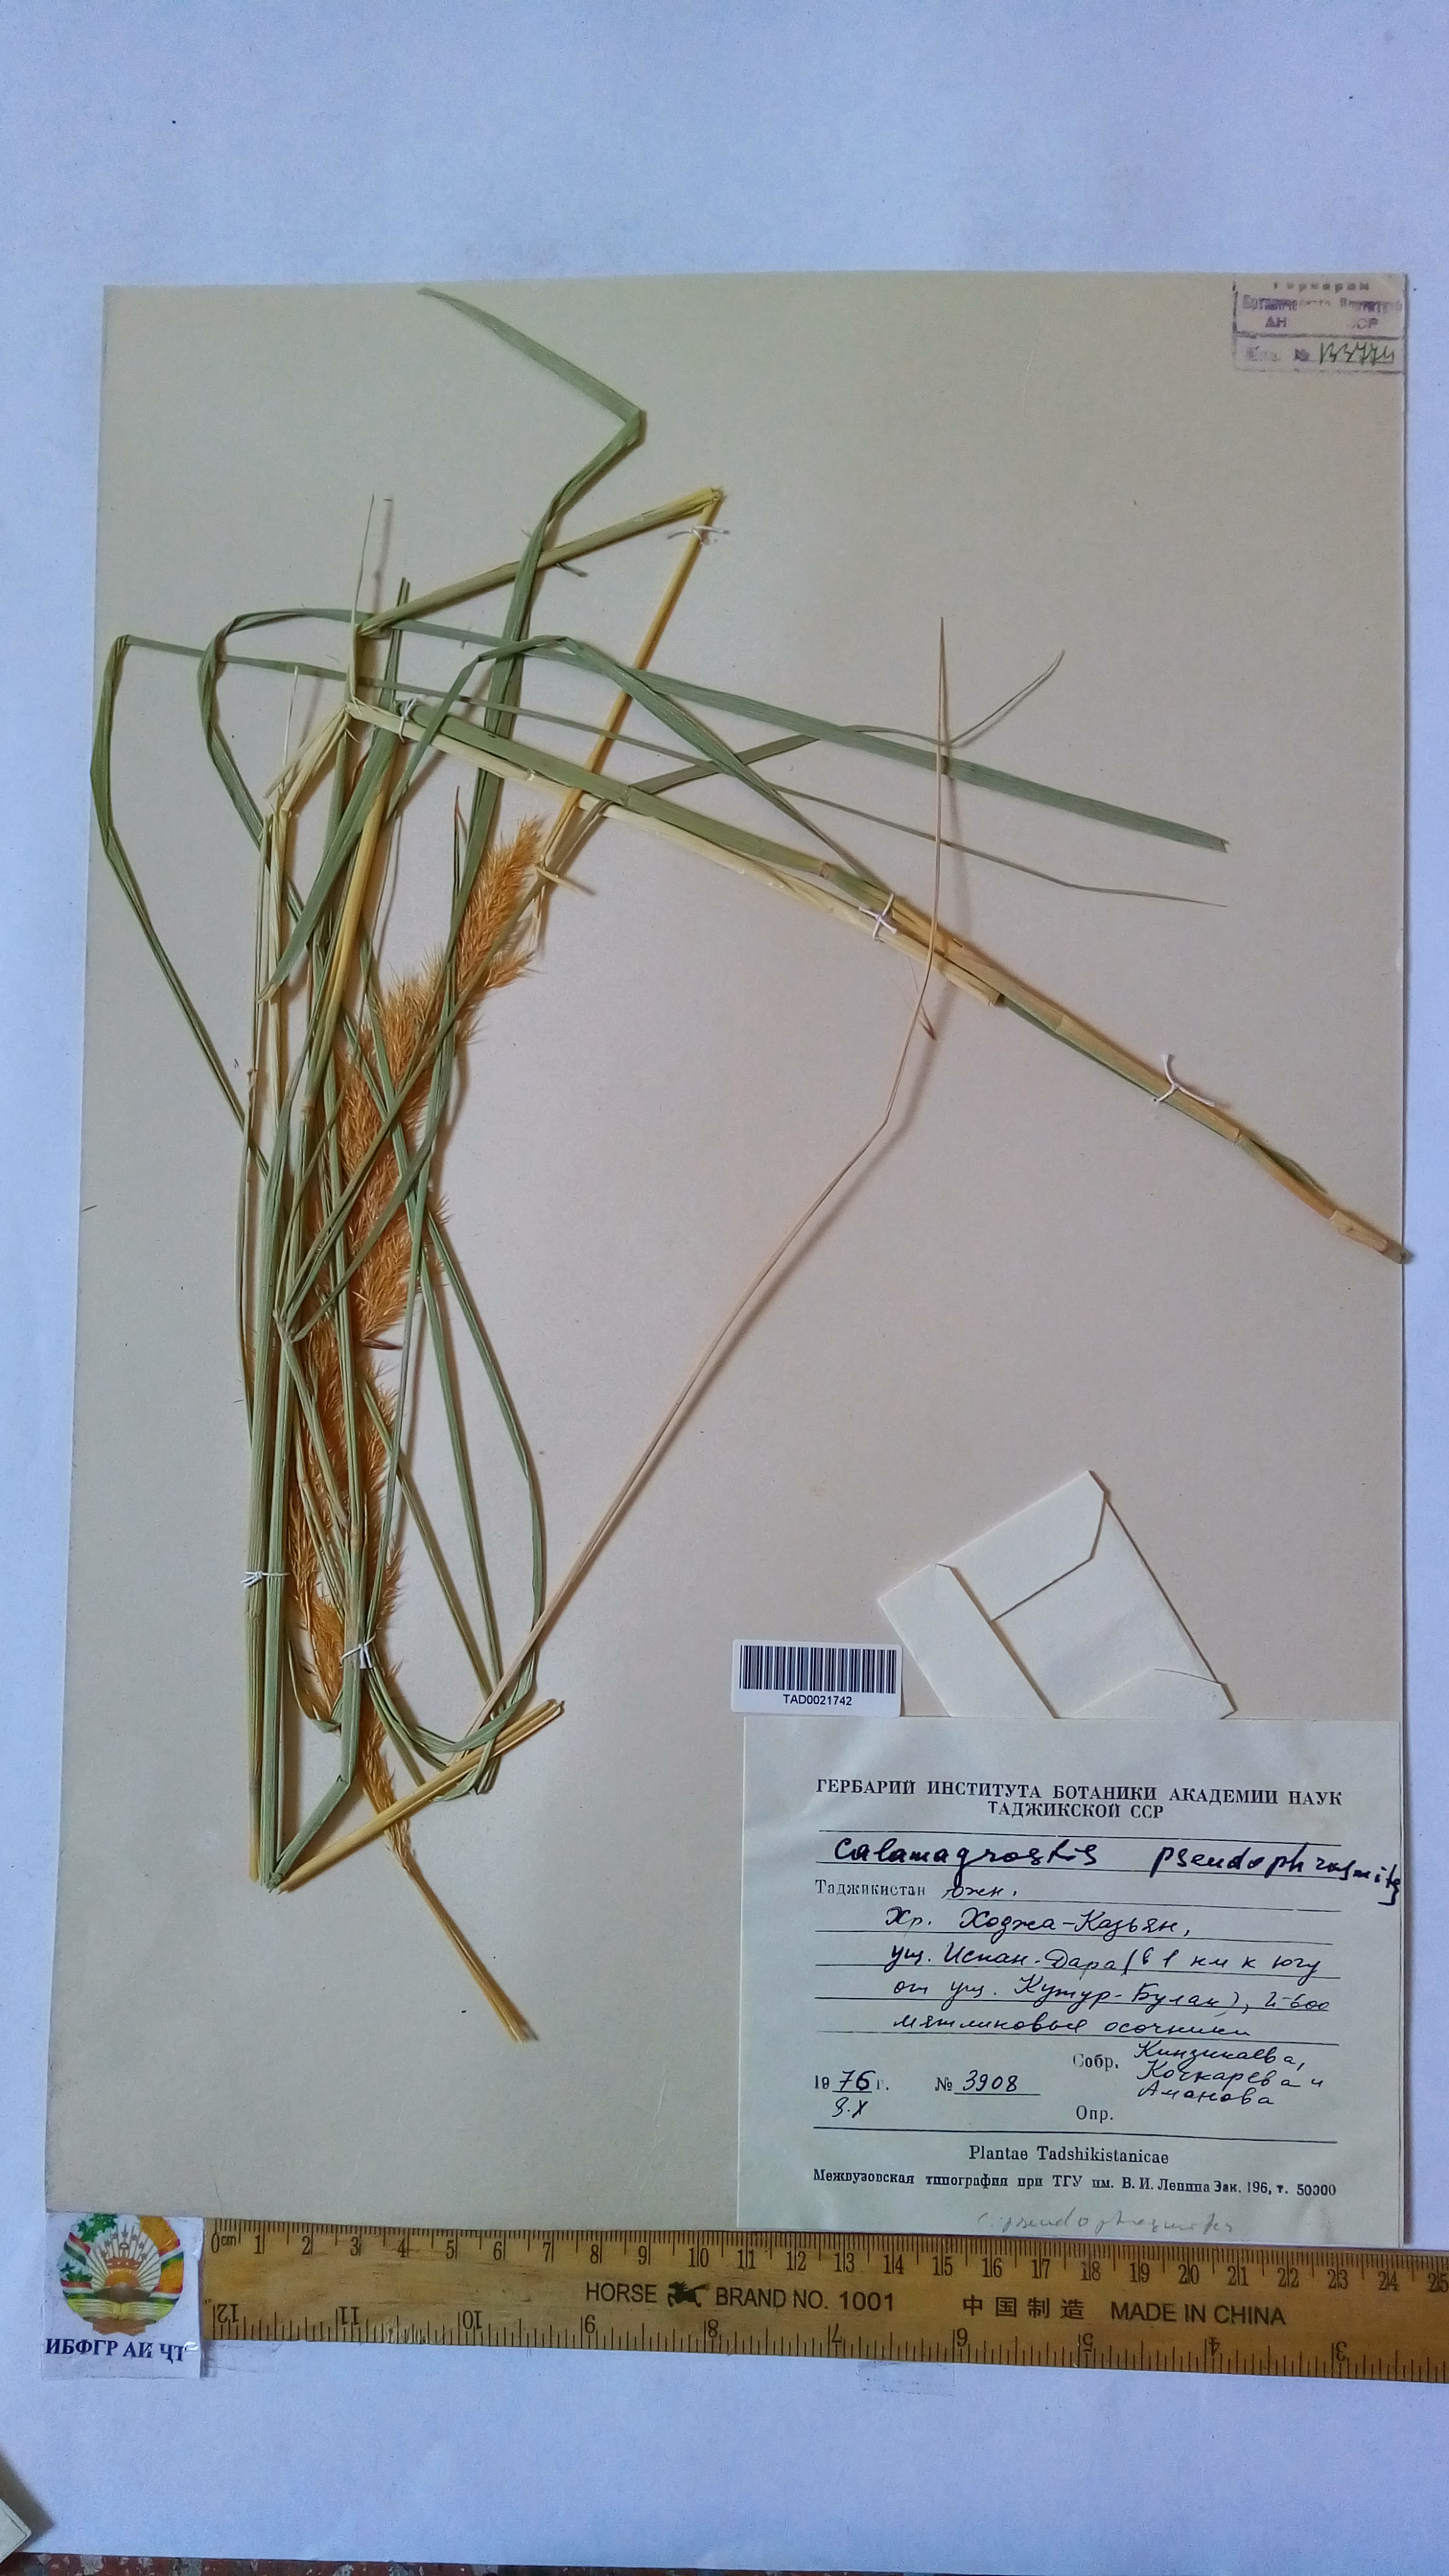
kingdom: Plantae
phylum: Tracheophyta
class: Liliopsida
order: Poales
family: Poaceae
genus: Calamagrostis
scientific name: Calamagrostis pseudophragmites
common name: Coastal small-reed
